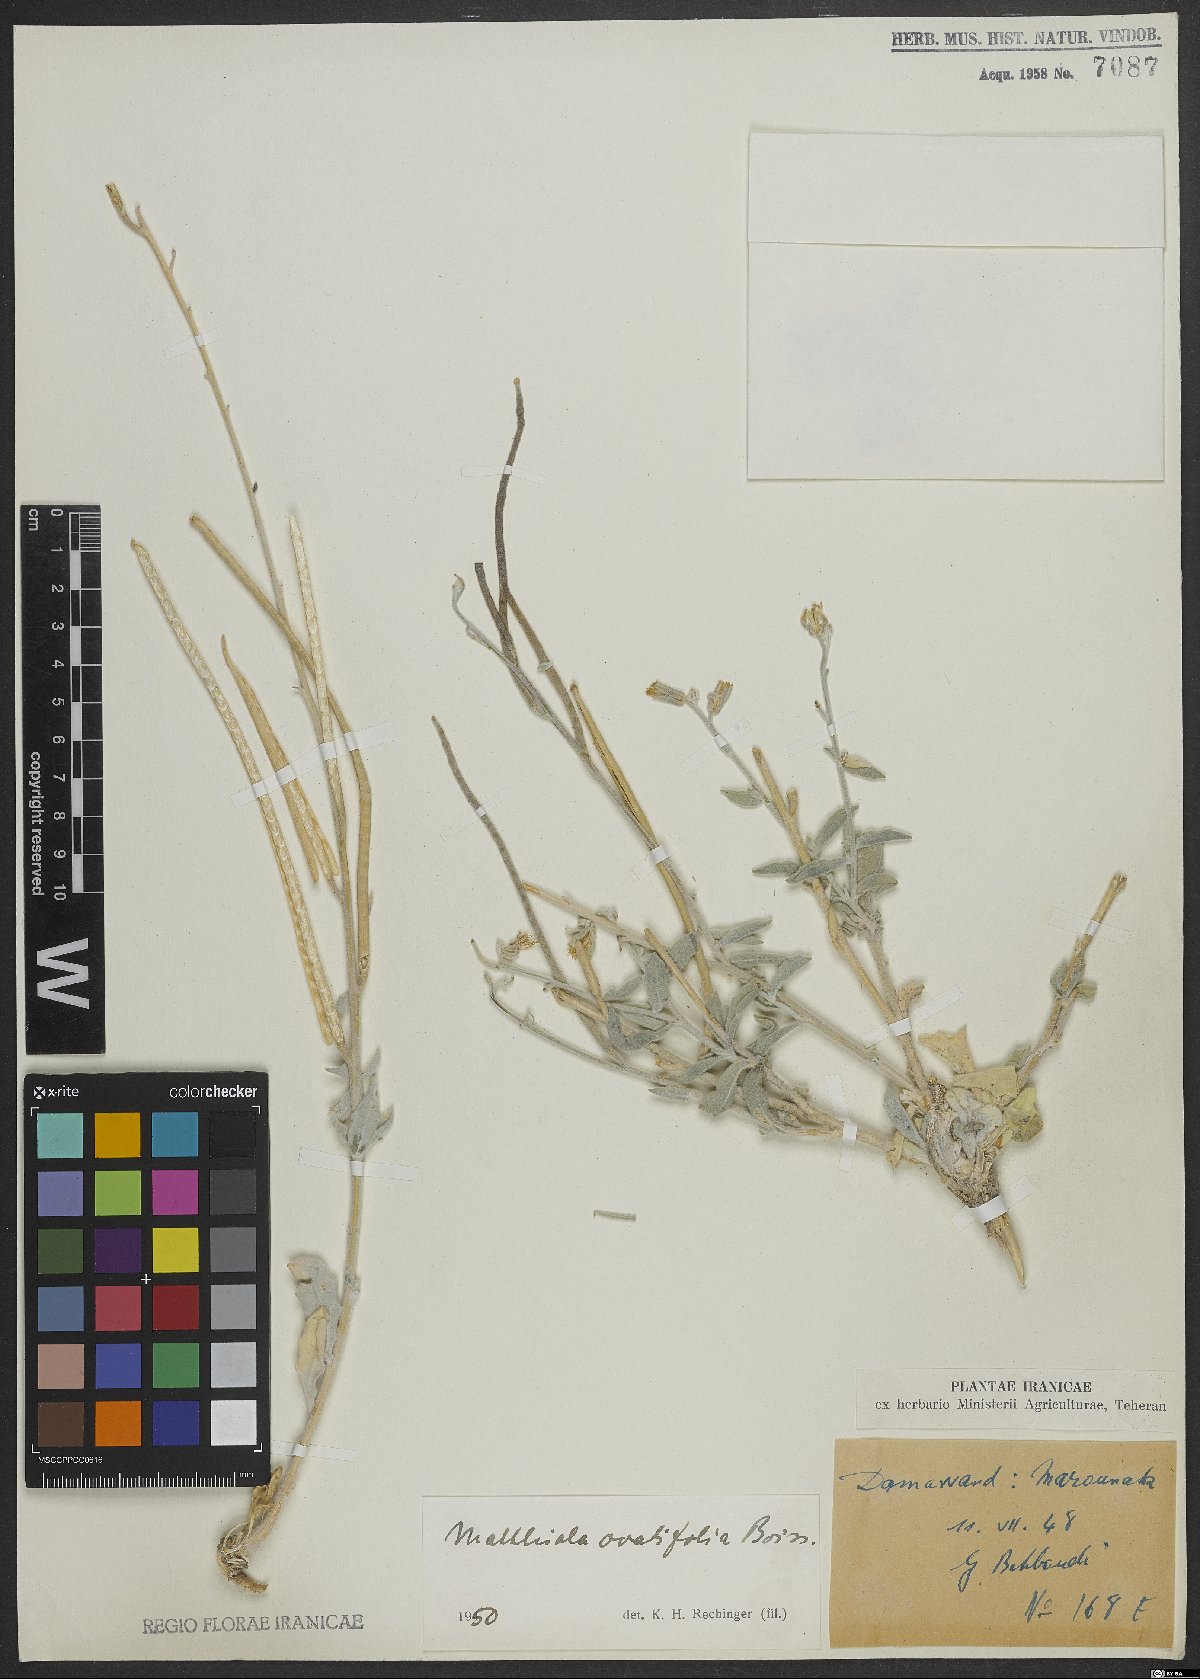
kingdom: Plantae
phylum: Tracheophyta
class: Magnoliopsida
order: Brassicales
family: Brassicaceae
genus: Matthiola
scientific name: Matthiola ovatifolia
